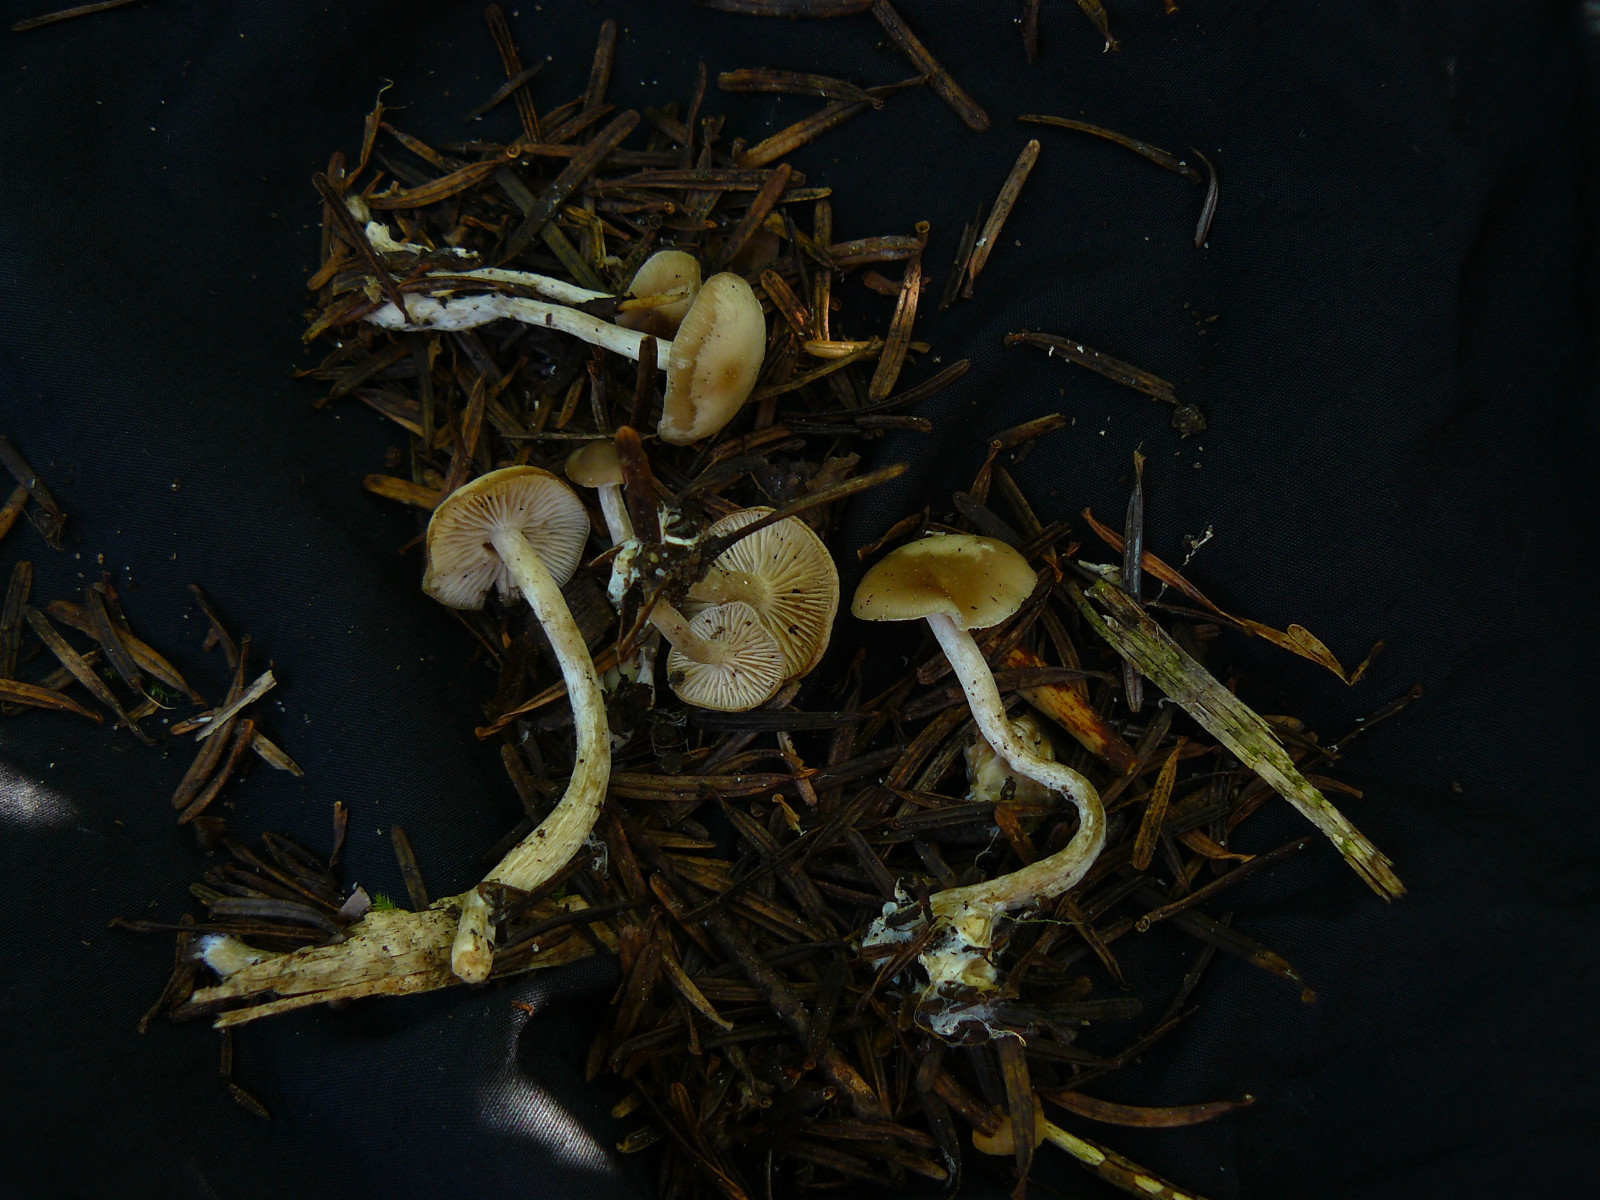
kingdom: Fungi
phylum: Basidiomycota
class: Agaricomycetes
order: Agaricales
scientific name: Agaricales
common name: champignonordenen
